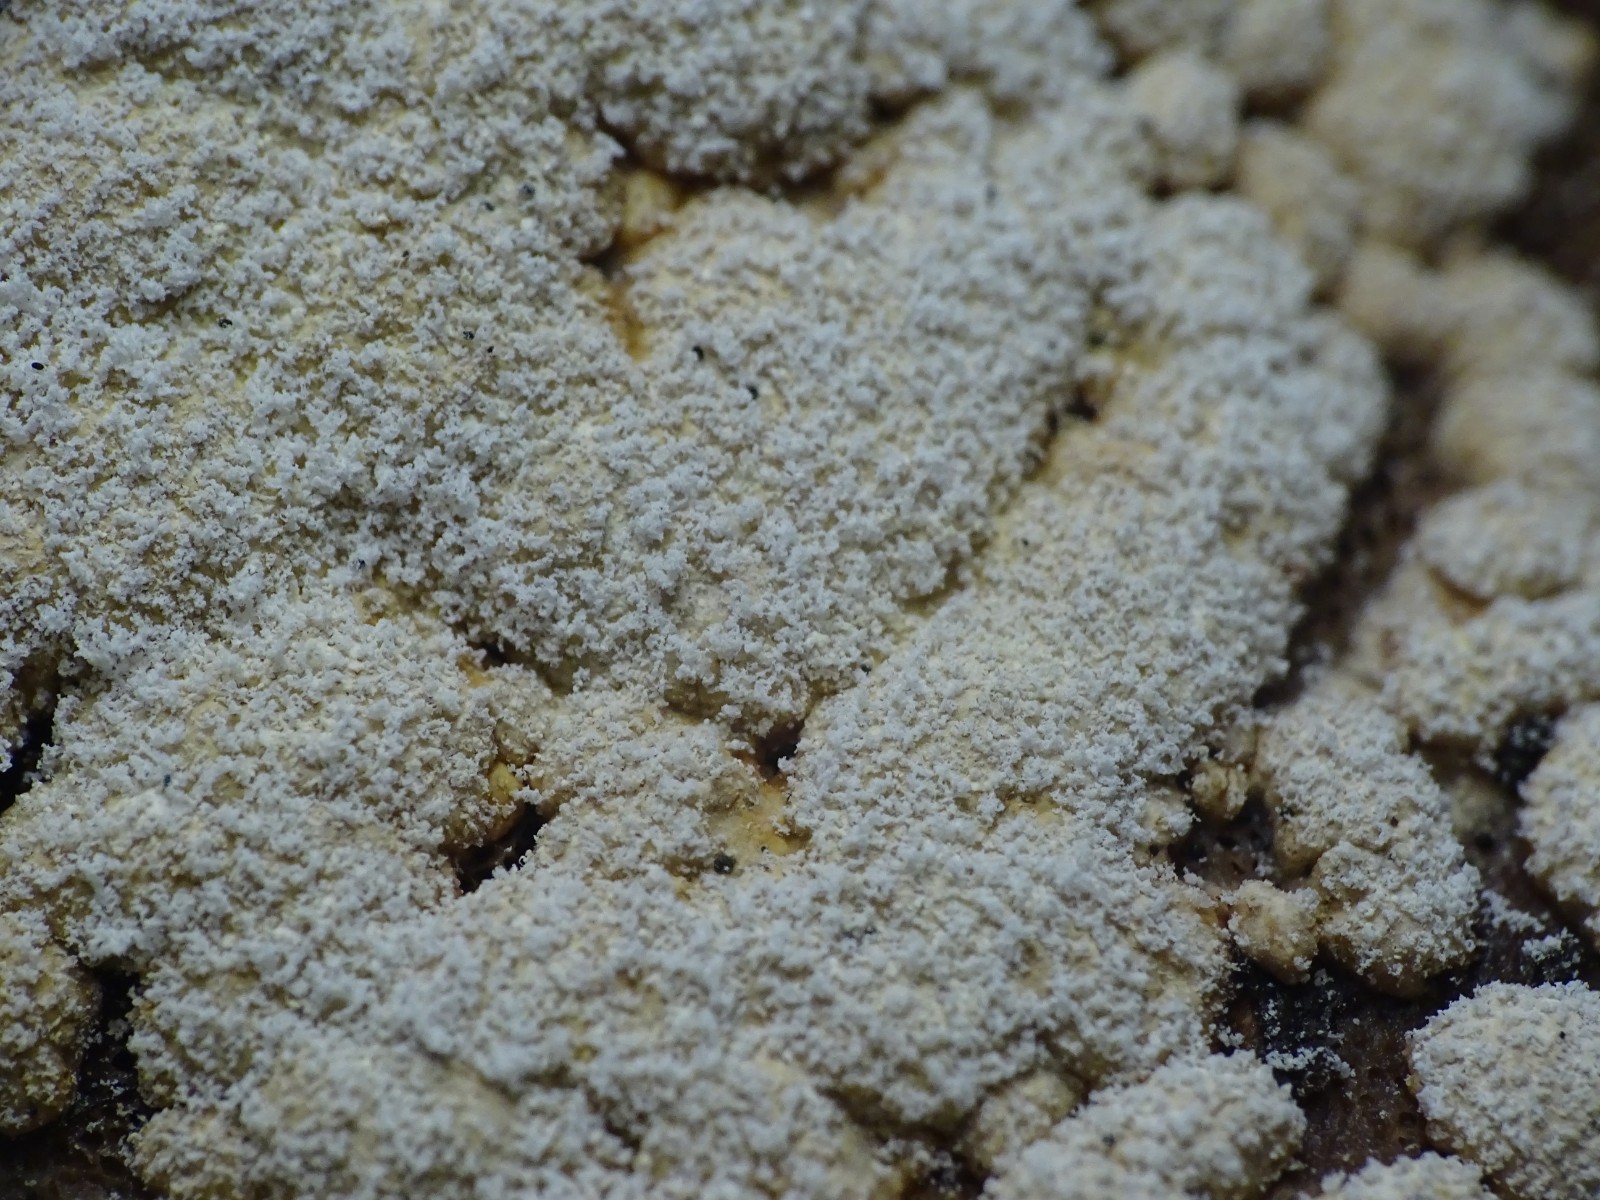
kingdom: Fungi
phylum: Ascomycota
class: Sordariomycetes
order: Hypocreales
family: Hypocreaceae
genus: Trichoderma
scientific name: Trichoderma pulvinatum
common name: snyltende kødkerne
